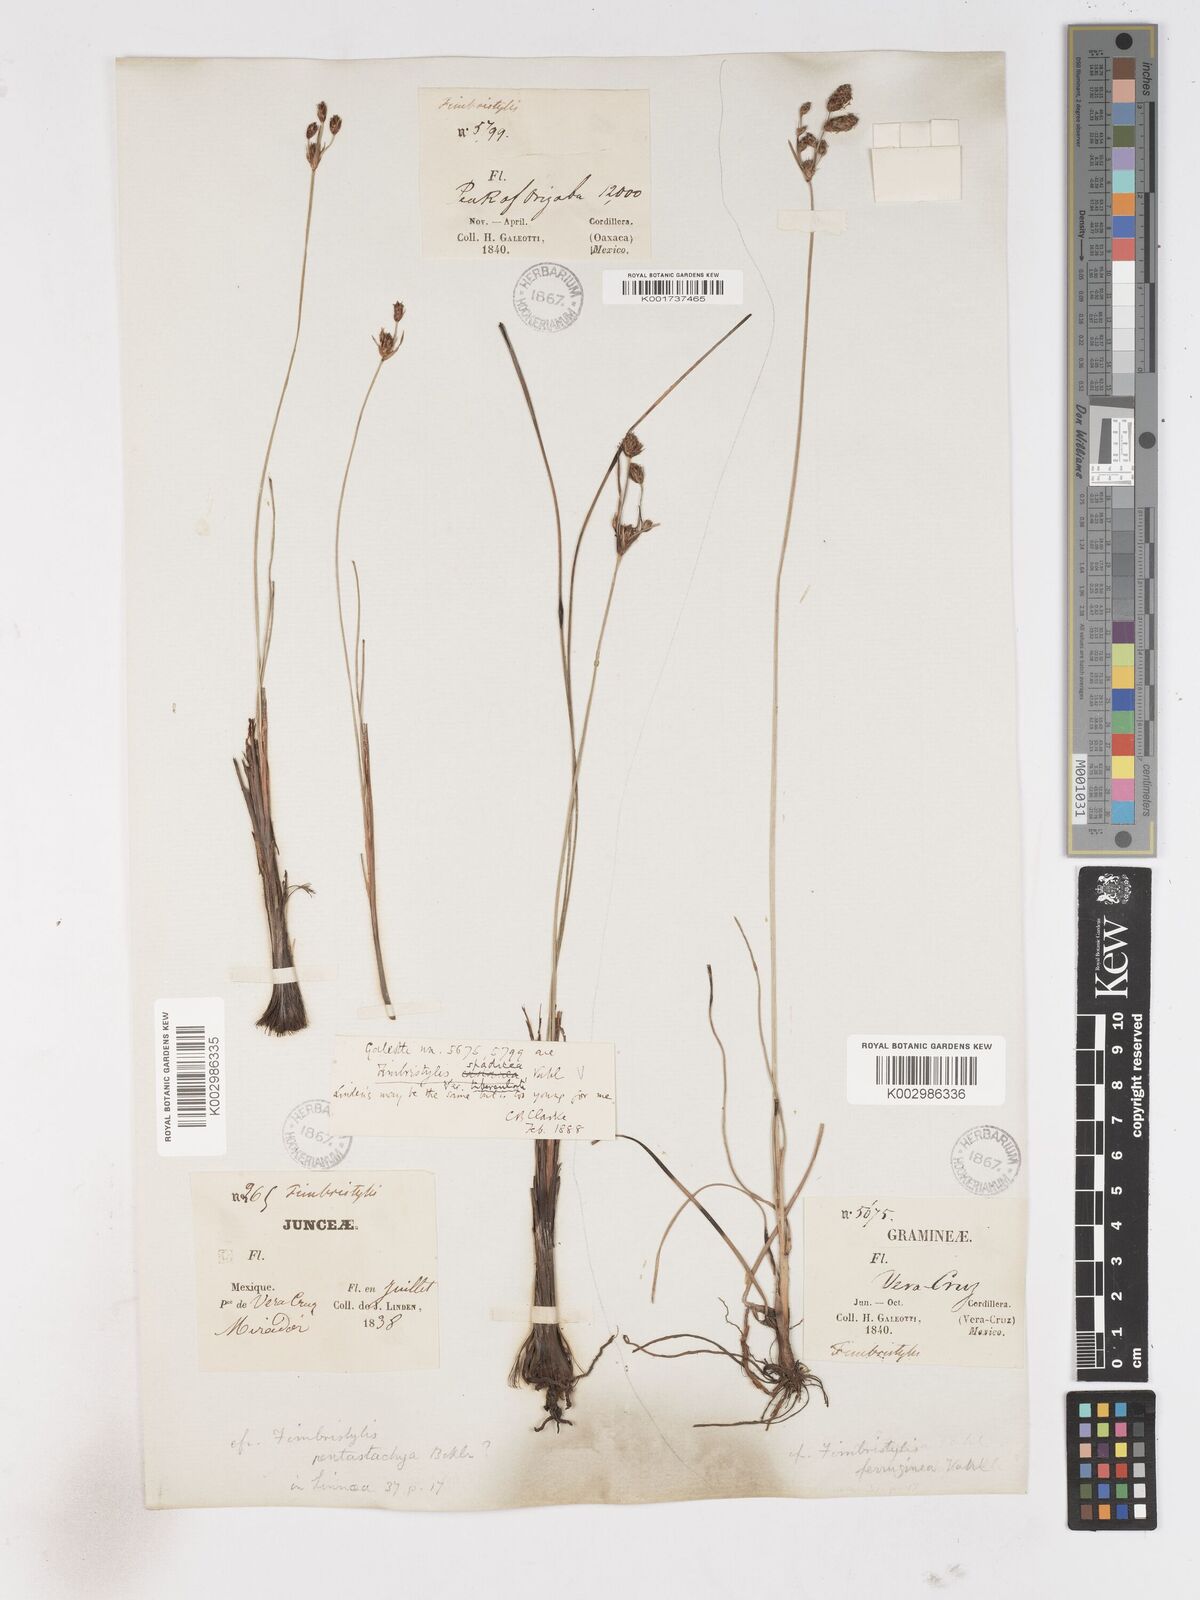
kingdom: Plantae
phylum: Tracheophyta
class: Liliopsida
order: Poales
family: Cyperaceae
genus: Fimbristylis
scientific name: Fimbristylis spadicea
